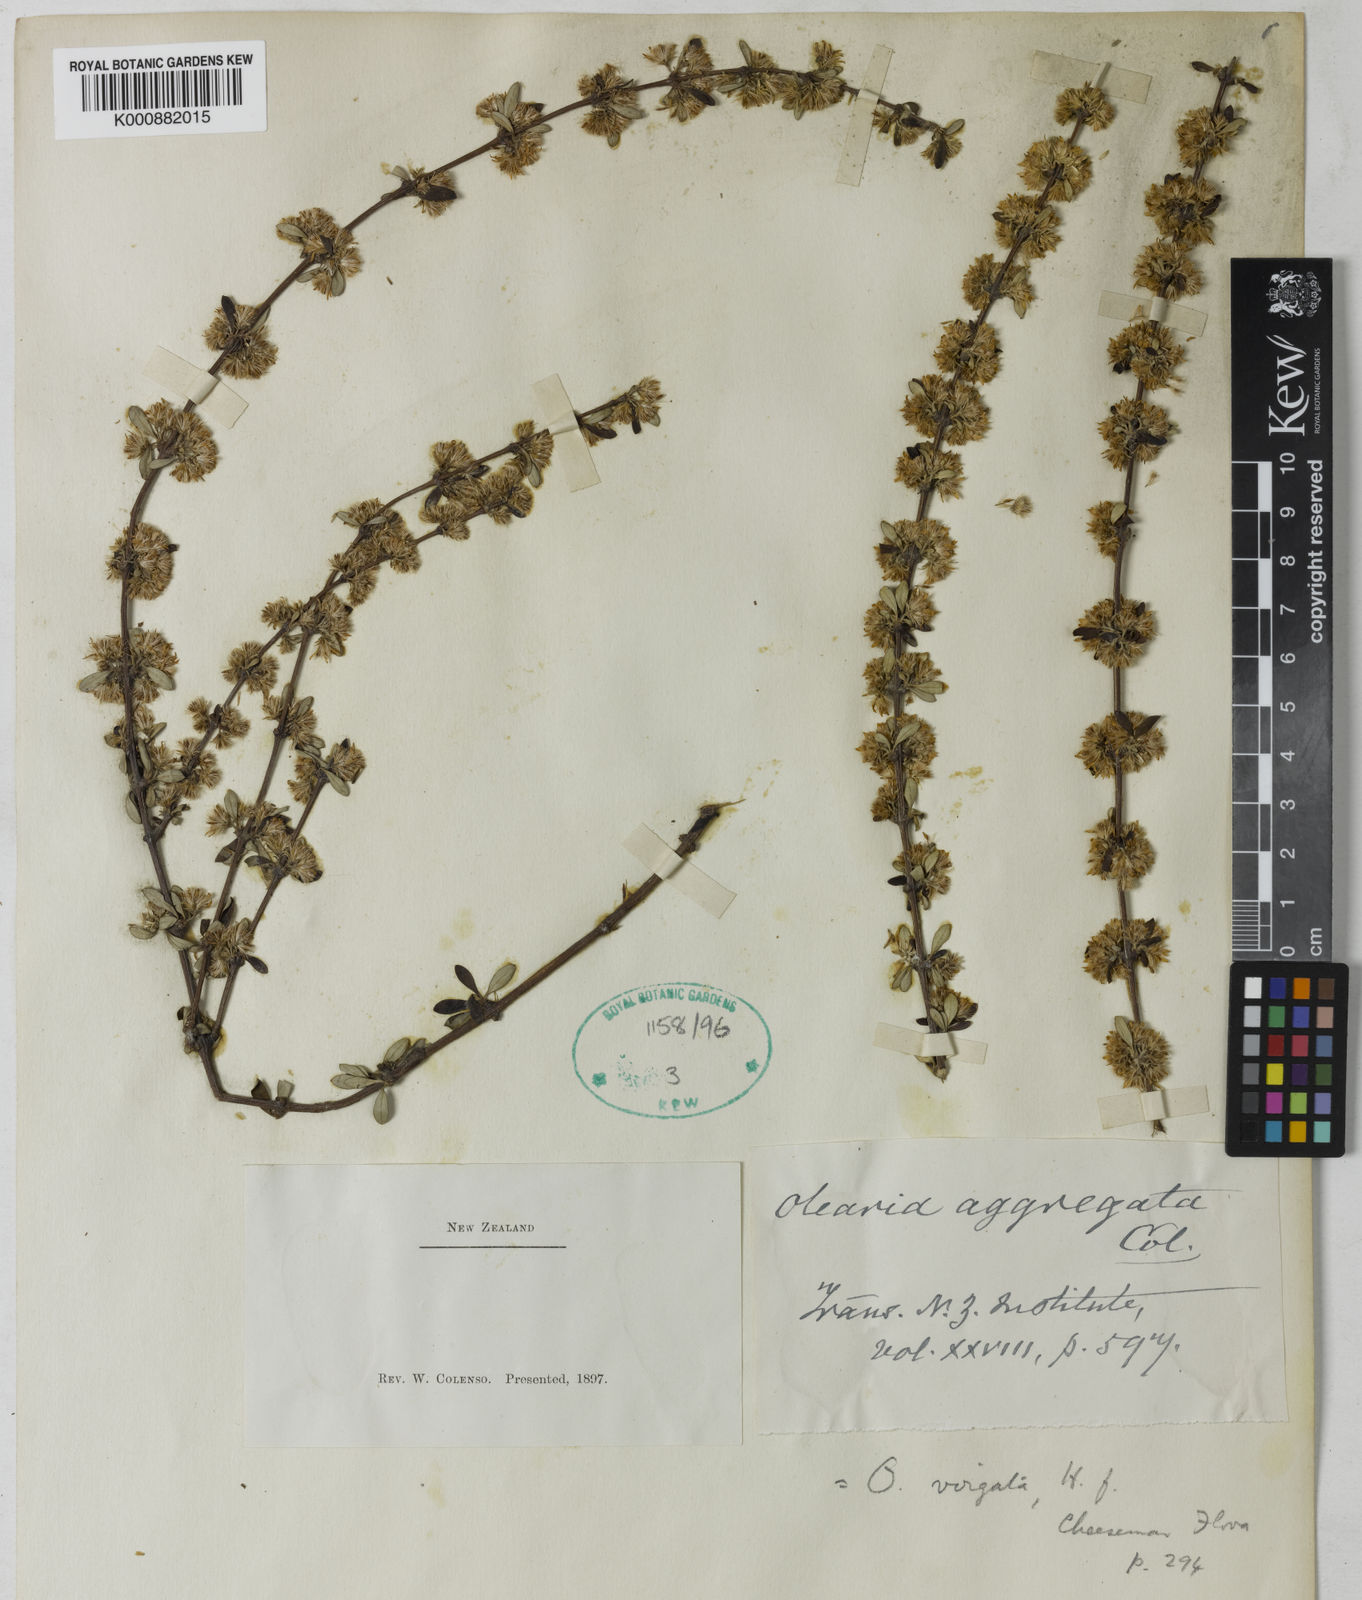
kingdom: Plantae
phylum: Tracheophyta
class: Magnoliopsida
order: Asterales
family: Asteraceae
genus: Olearia
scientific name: Olearia virgata
